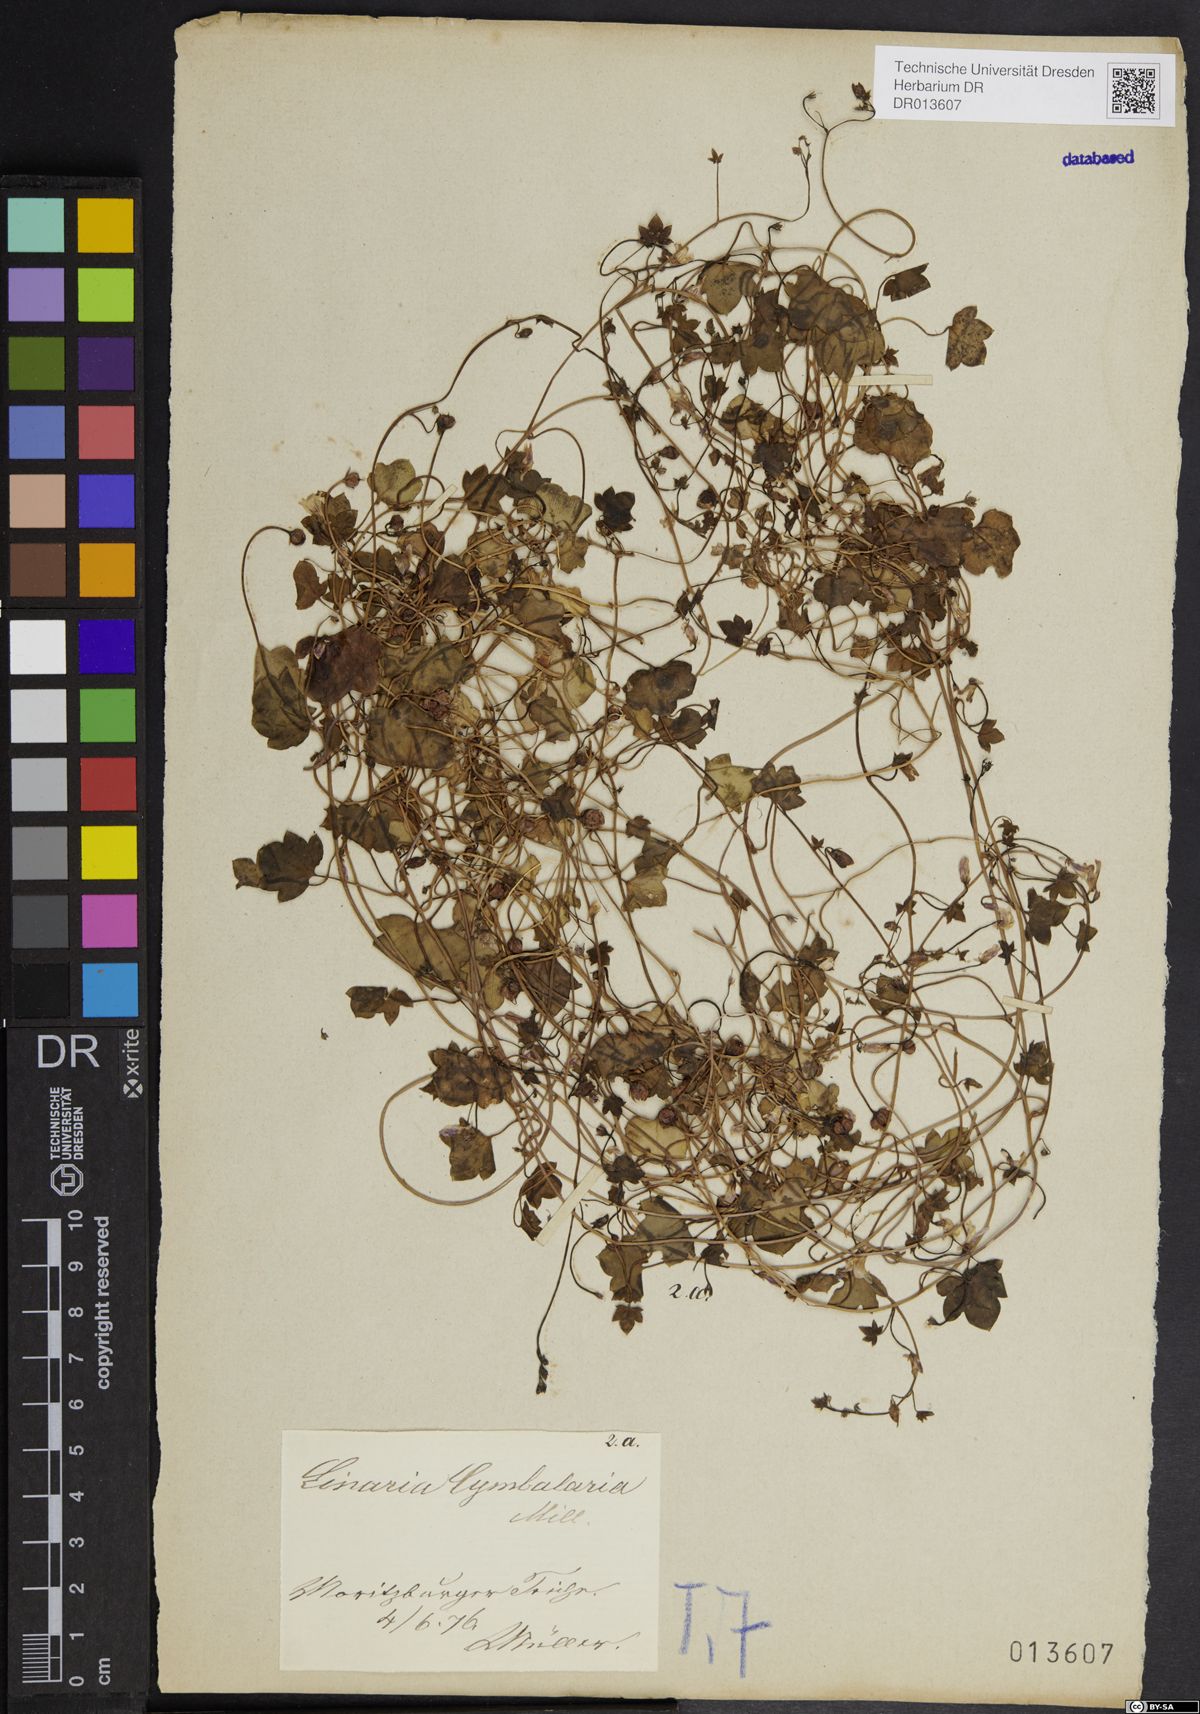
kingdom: Plantae
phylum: Tracheophyta
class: Magnoliopsida
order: Lamiales
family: Plantaginaceae
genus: Cymbalaria
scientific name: Cymbalaria muralis
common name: Ivy-leaved toadflax
